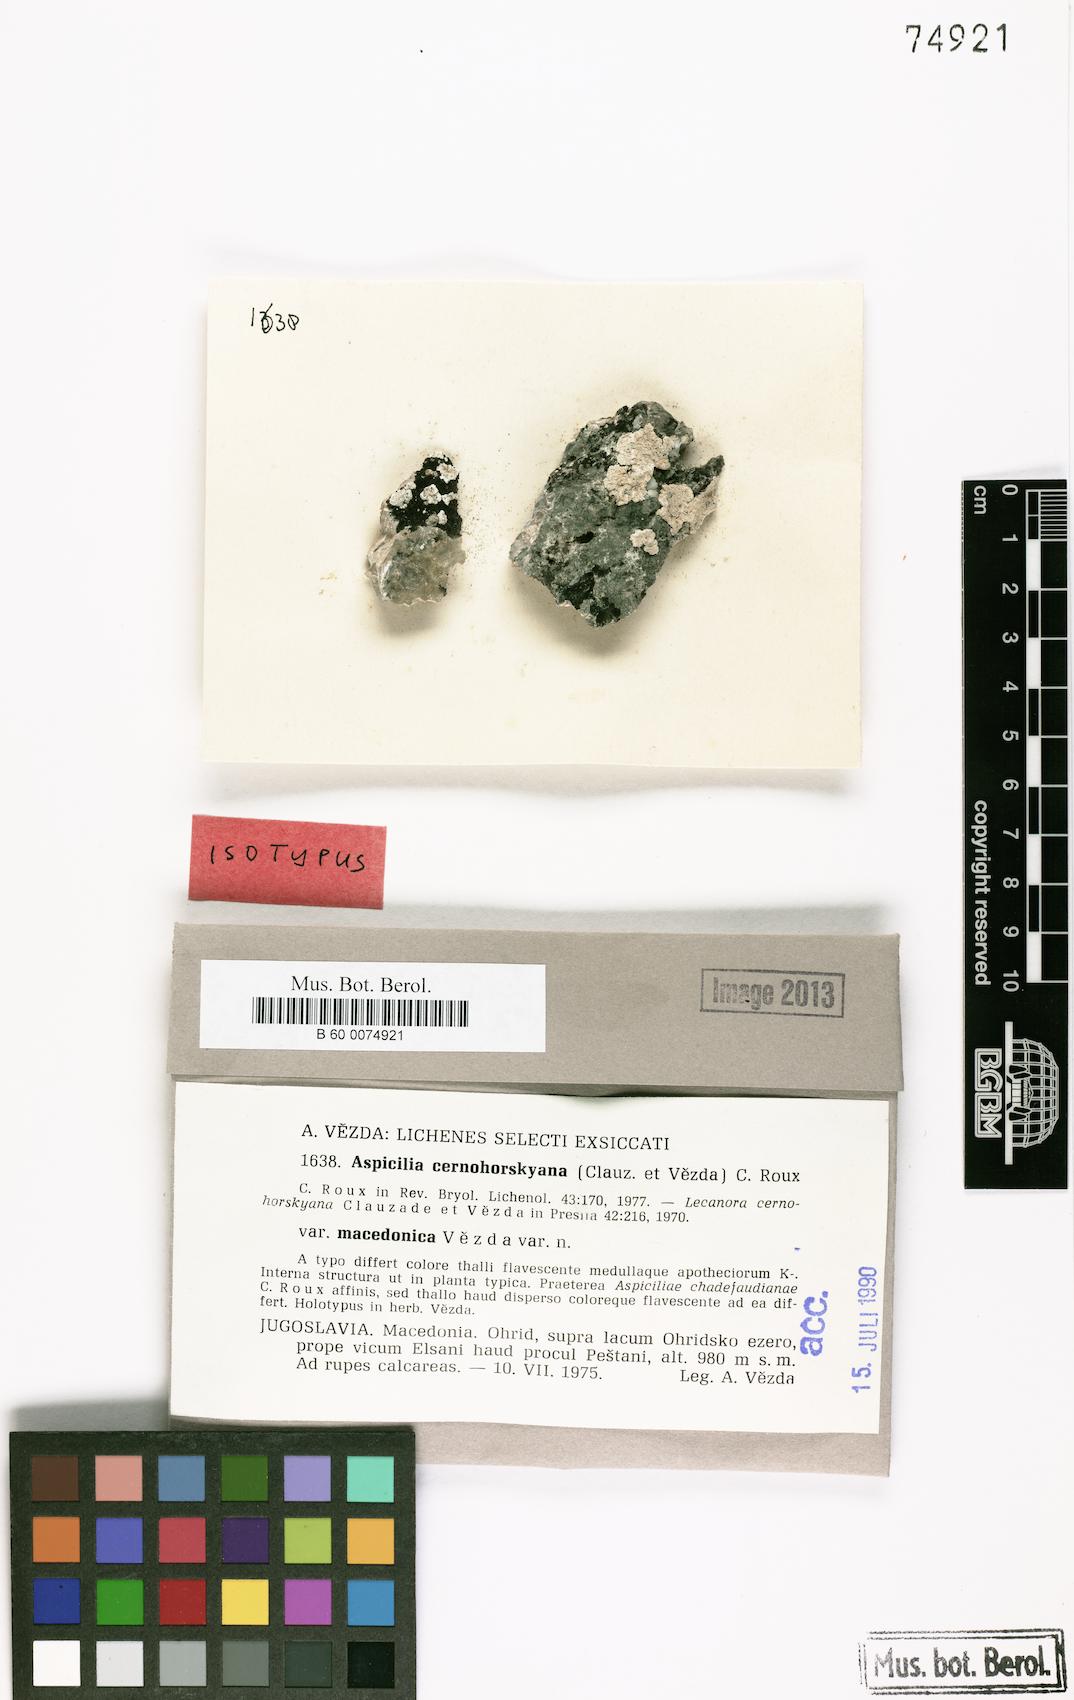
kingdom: Fungi
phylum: Ascomycota
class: Lecanoromycetes
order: Pertusariales
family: Megasporaceae
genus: Lobothallia
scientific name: Lobothallia chadefaudiana
